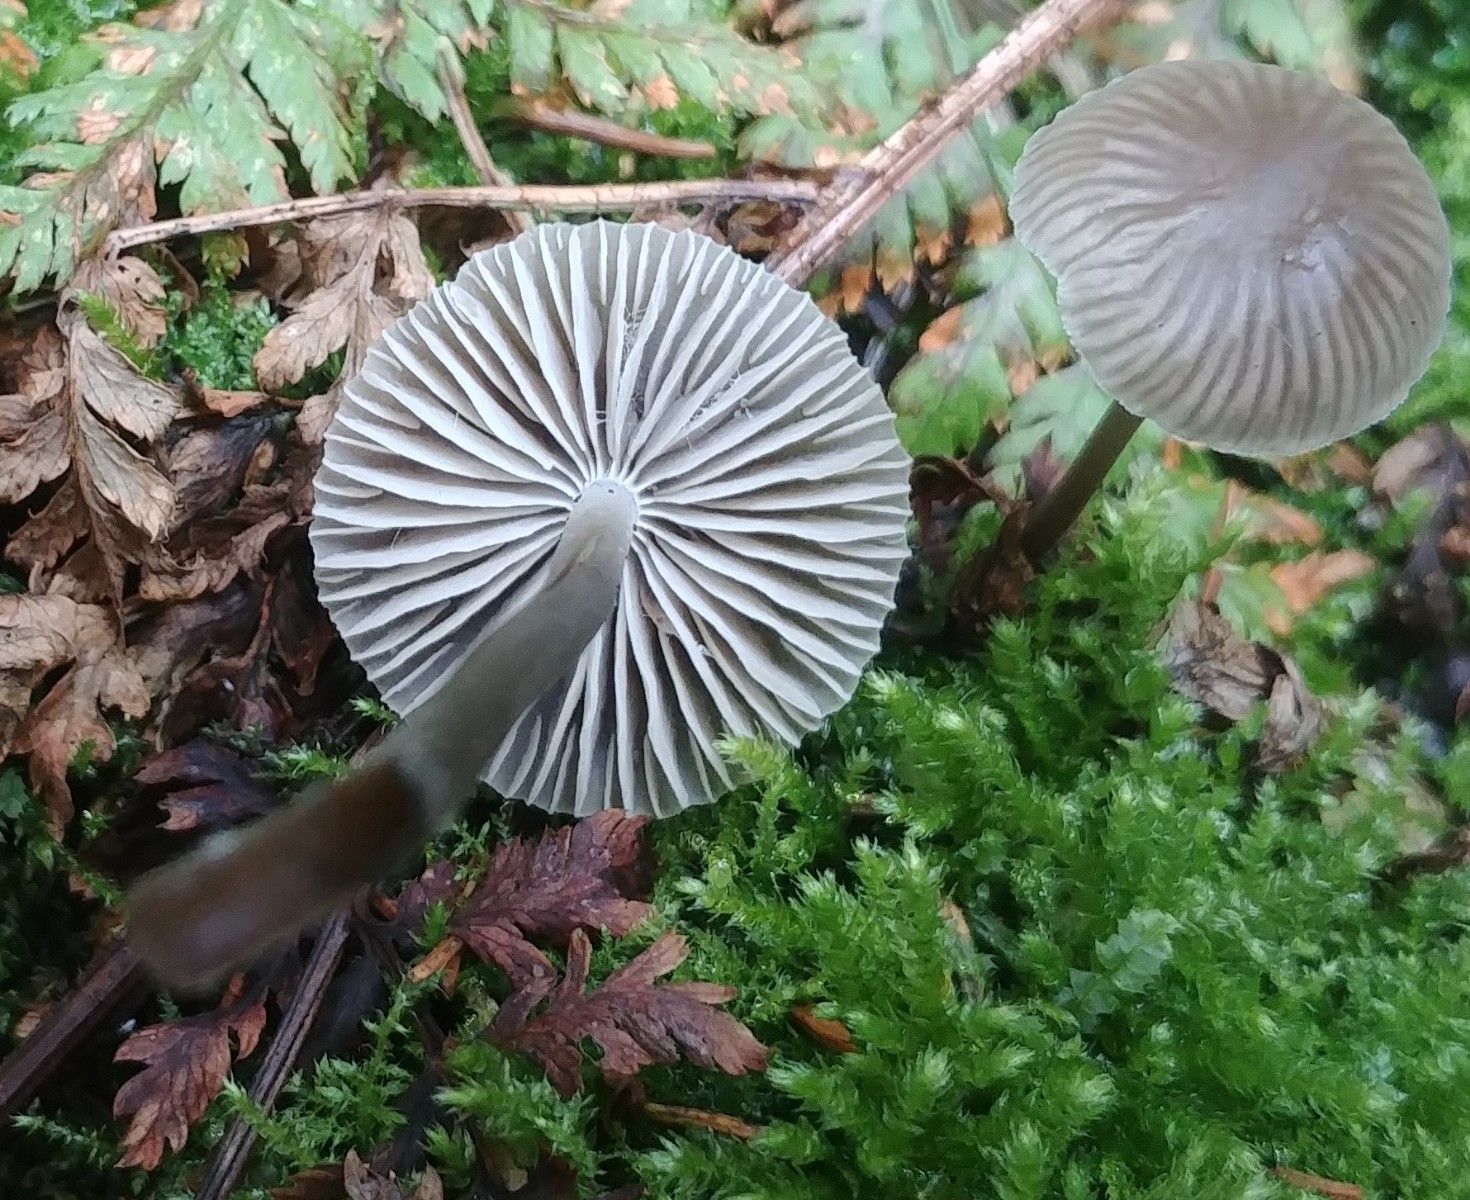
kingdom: Fungi
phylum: Basidiomycota
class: Agaricomycetes
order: Agaricales
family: Mycenaceae
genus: Mycena
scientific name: Mycena
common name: huesvamp
